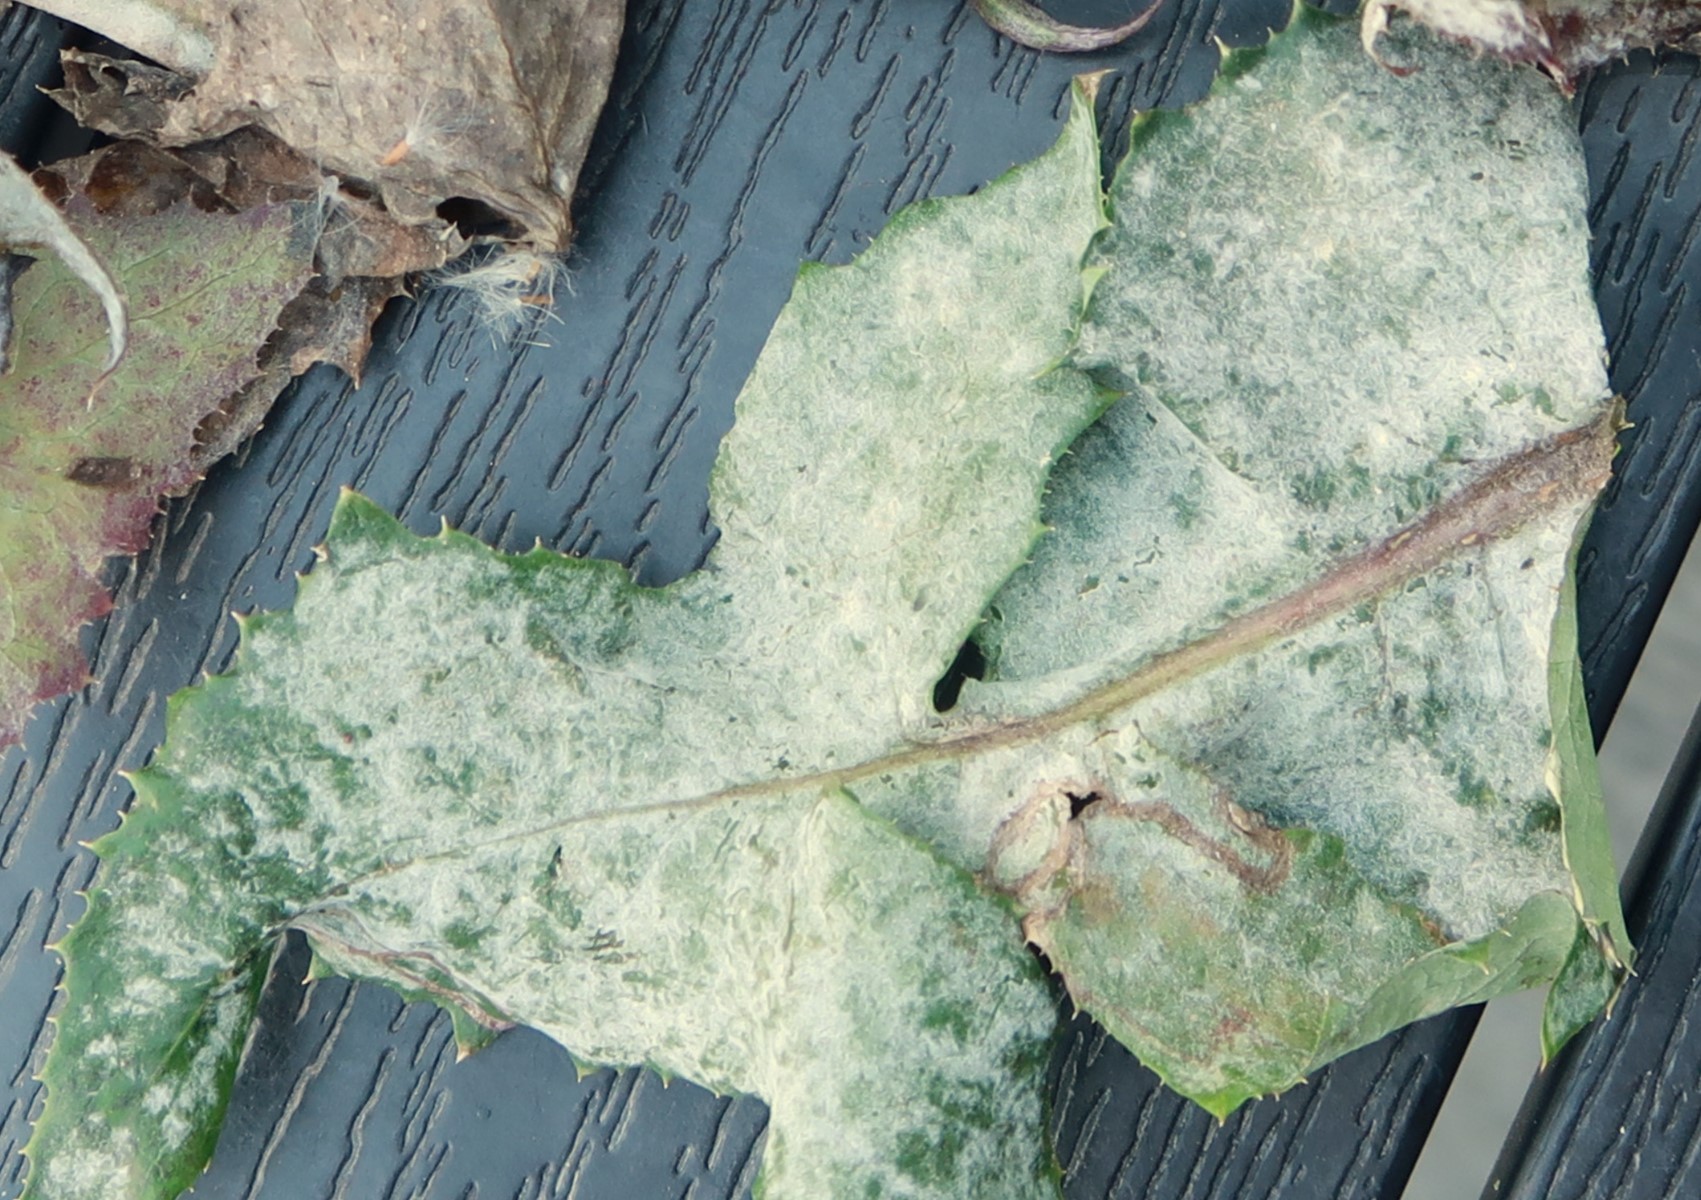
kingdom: Fungi
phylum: Ascomycota
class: Leotiomycetes
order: Helotiales
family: Erysiphaceae
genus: Golovinomyces
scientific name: Golovinomyces sonchicola
